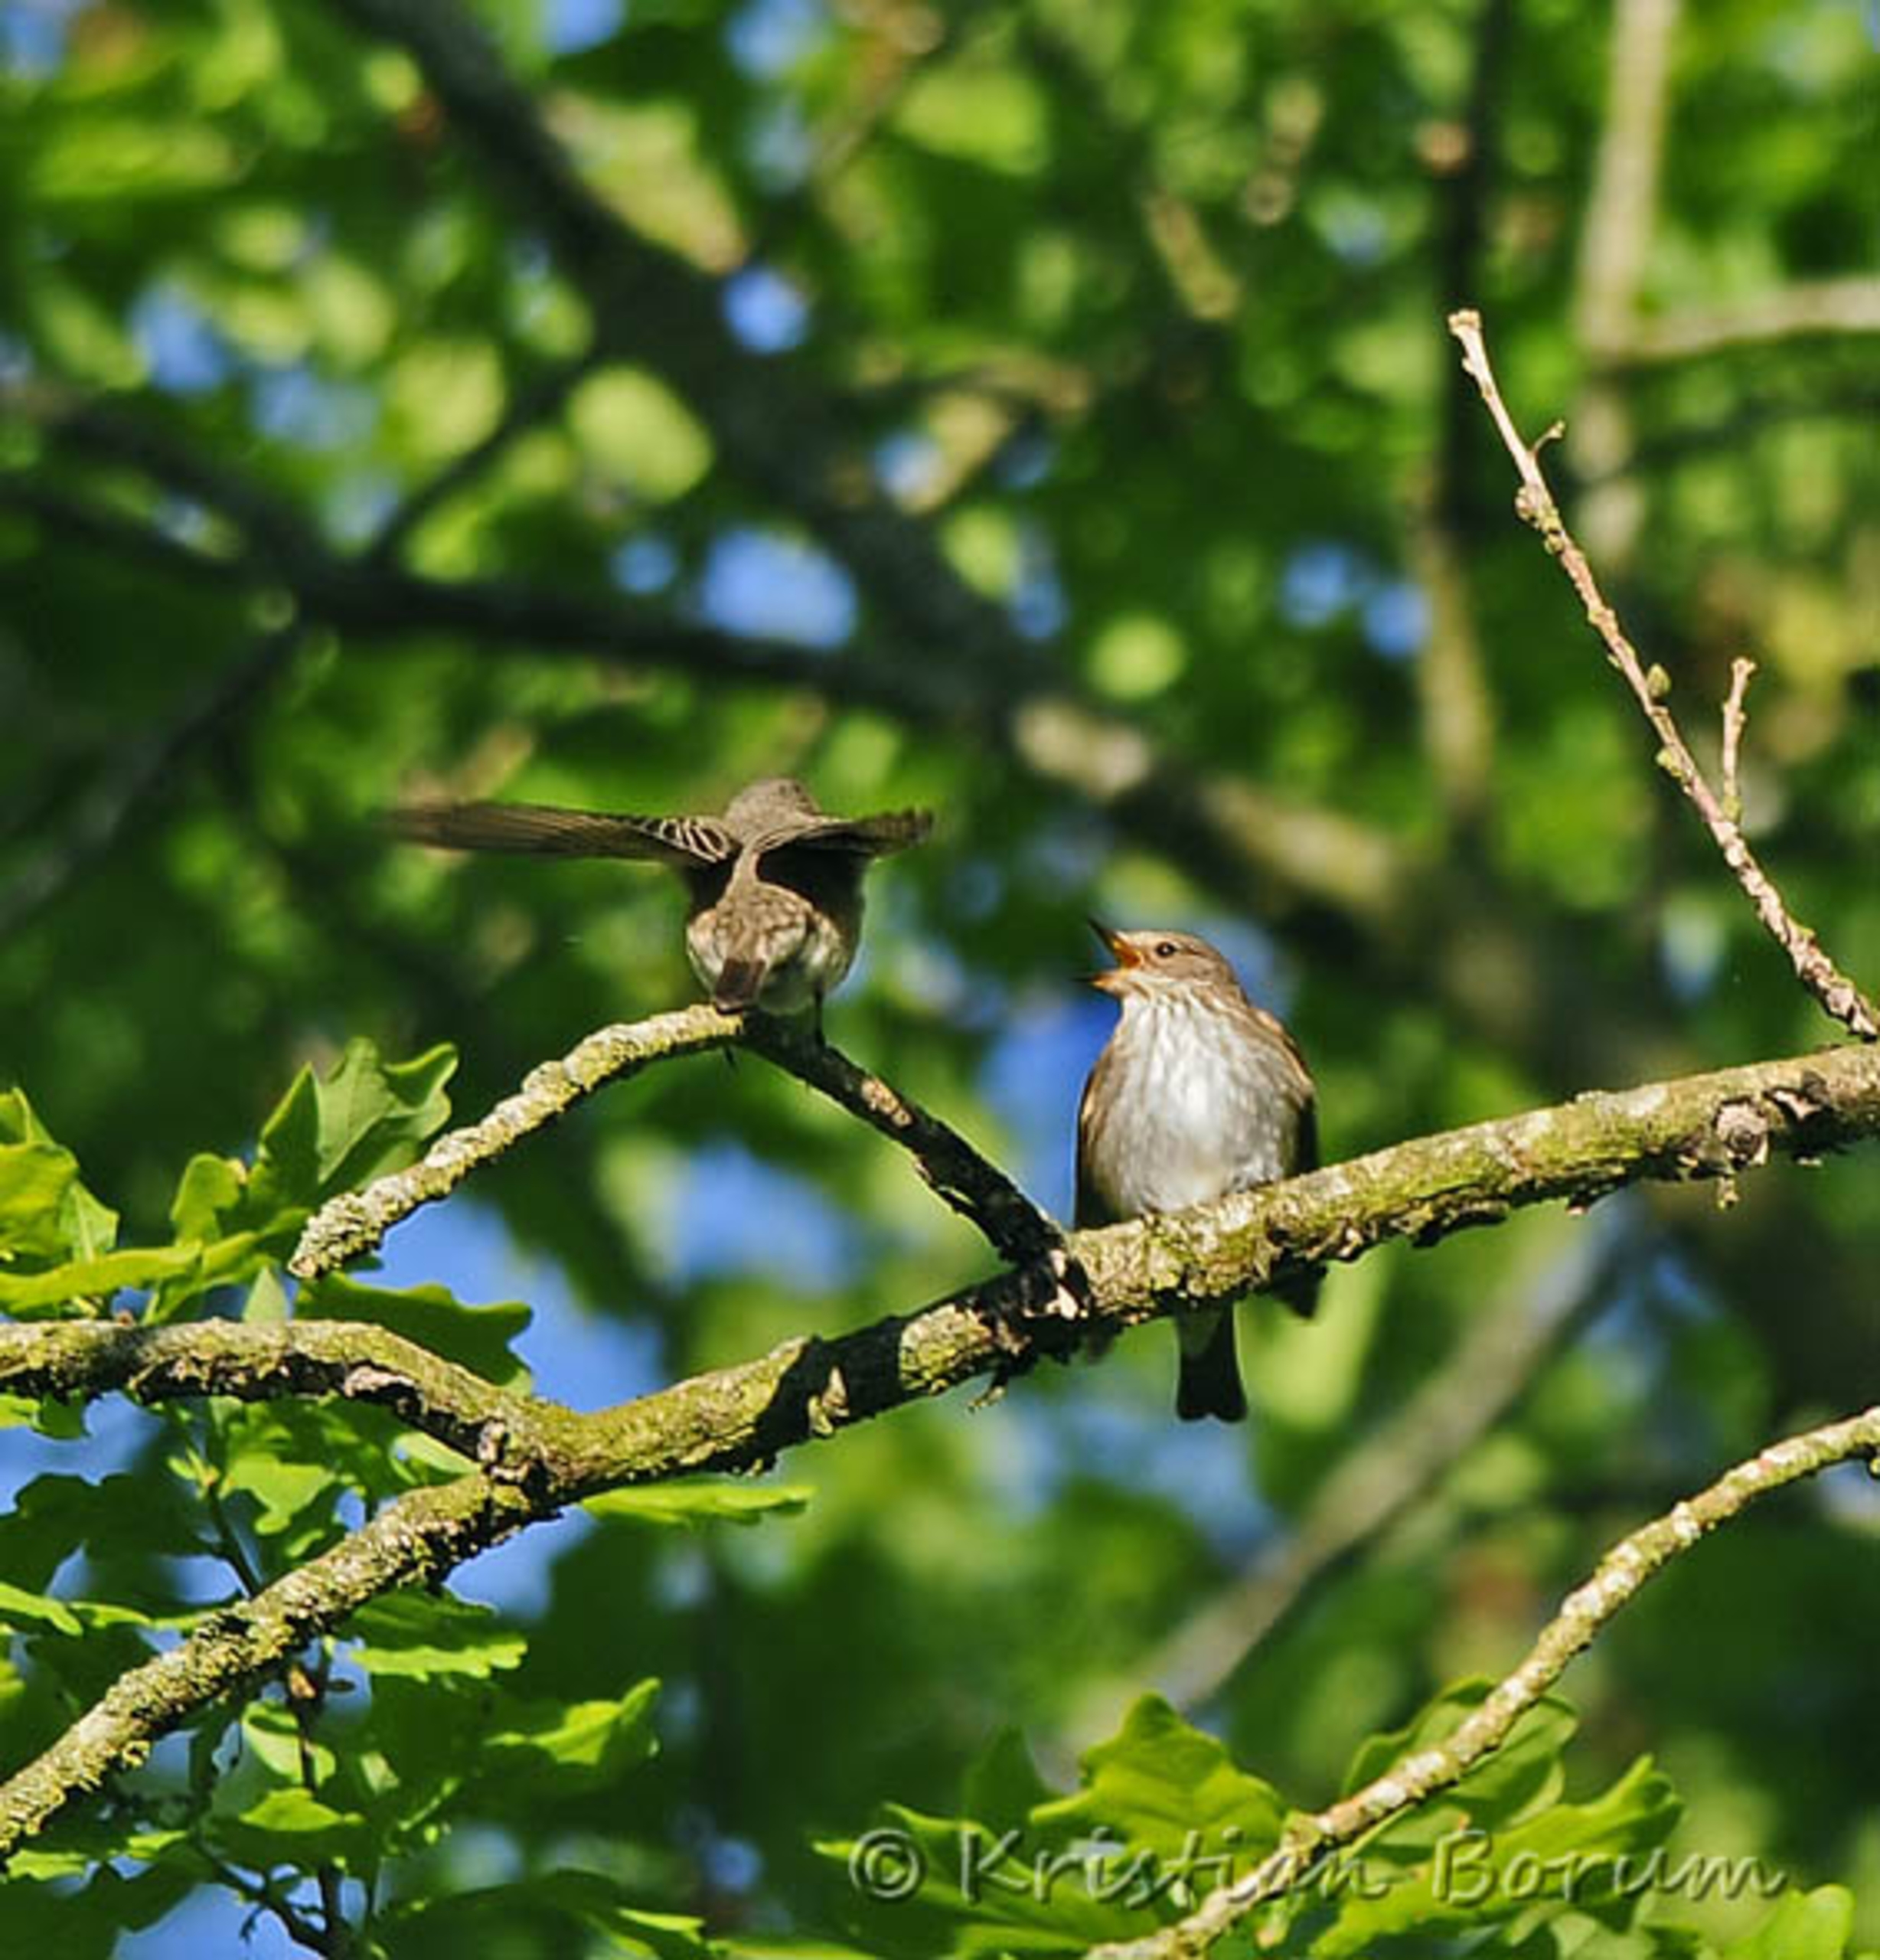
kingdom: Animalia
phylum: Chordata
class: Aves
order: Passeriformes
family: Muscicapidae
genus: Muscicapa
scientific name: Muscicapa striata
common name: Grå fluesnapper
